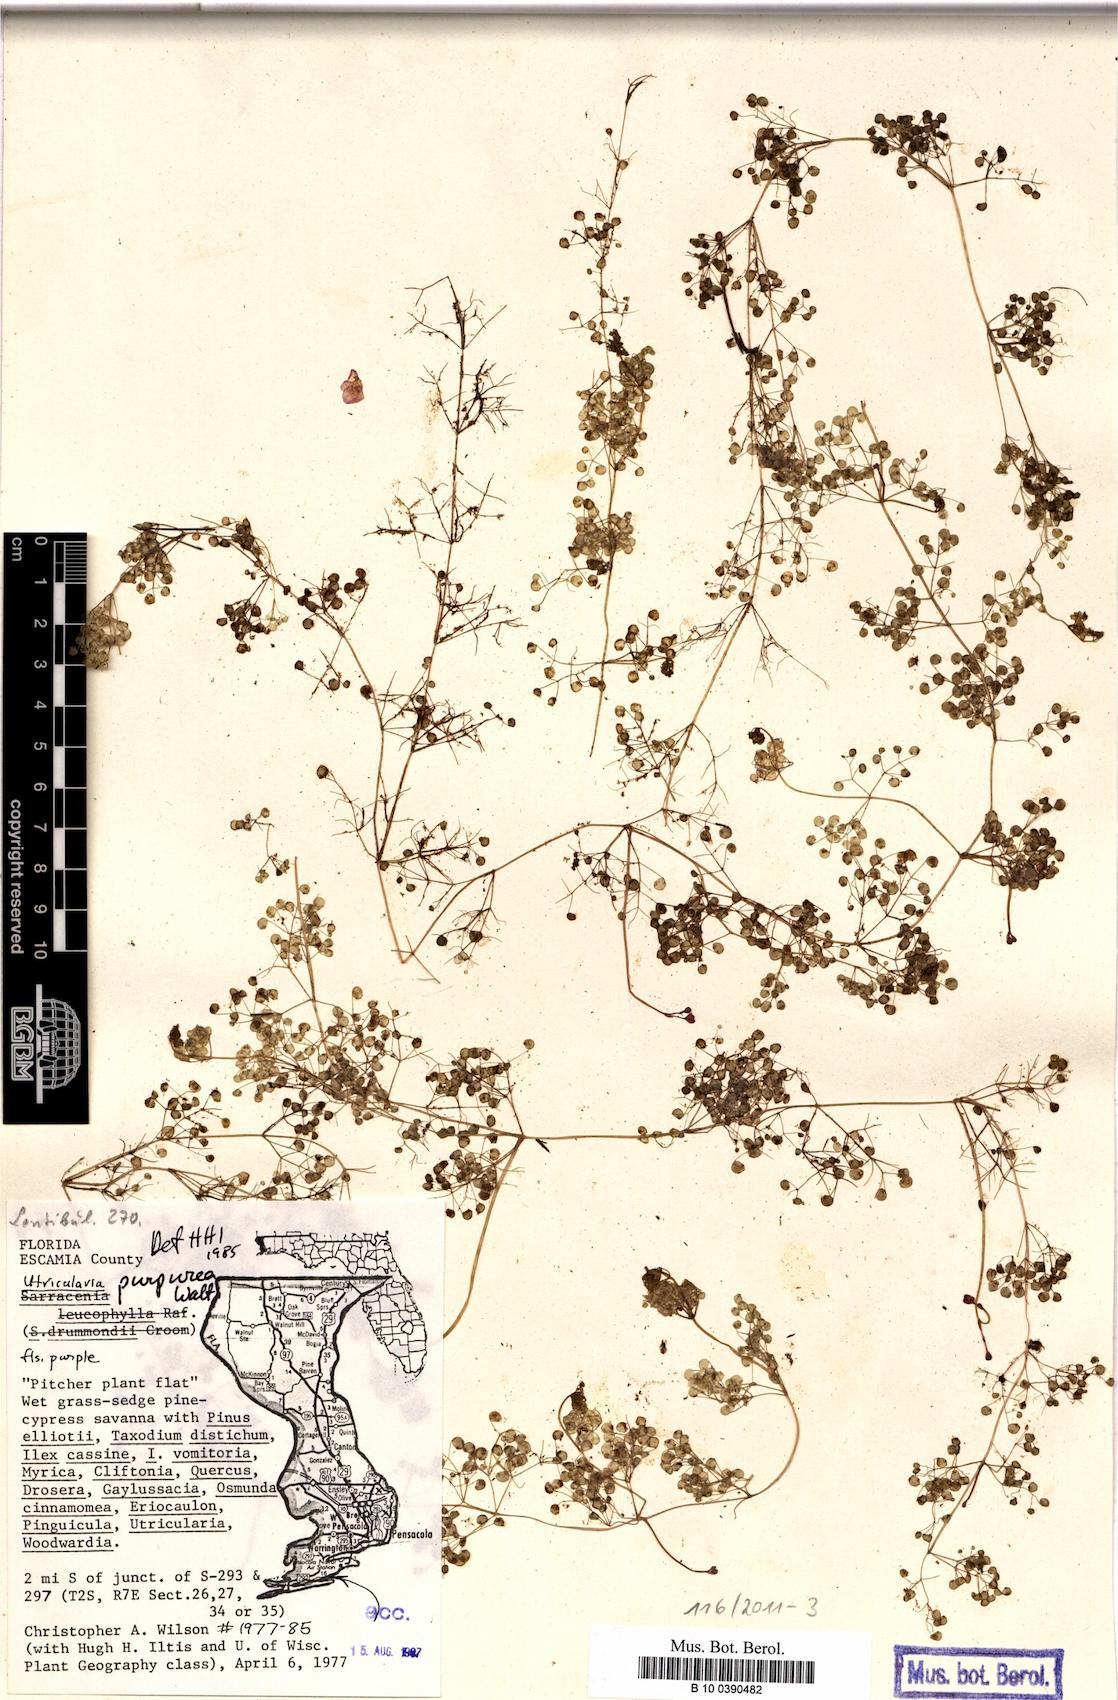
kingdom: Plantae
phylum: Tracheophyta
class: Magnoliopsida
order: Lamiales
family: Lentibulariaceae
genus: Utricularia
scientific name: Utricularia purpurea
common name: Eastern purple bladderwort
